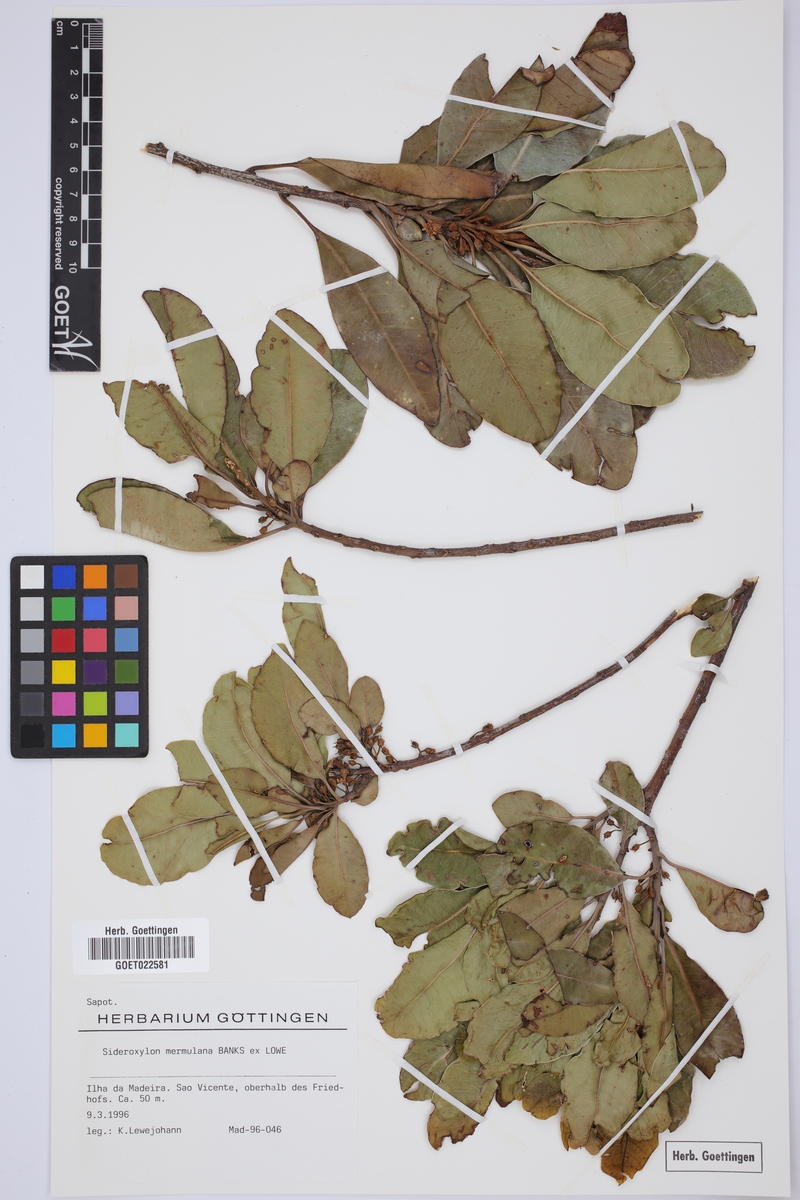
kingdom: Plantae
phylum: Tracheophyta
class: Magnoliopsida
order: Ericales
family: Sapotaceae
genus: Sideroxylon
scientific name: Sideroxylon mirmulano
